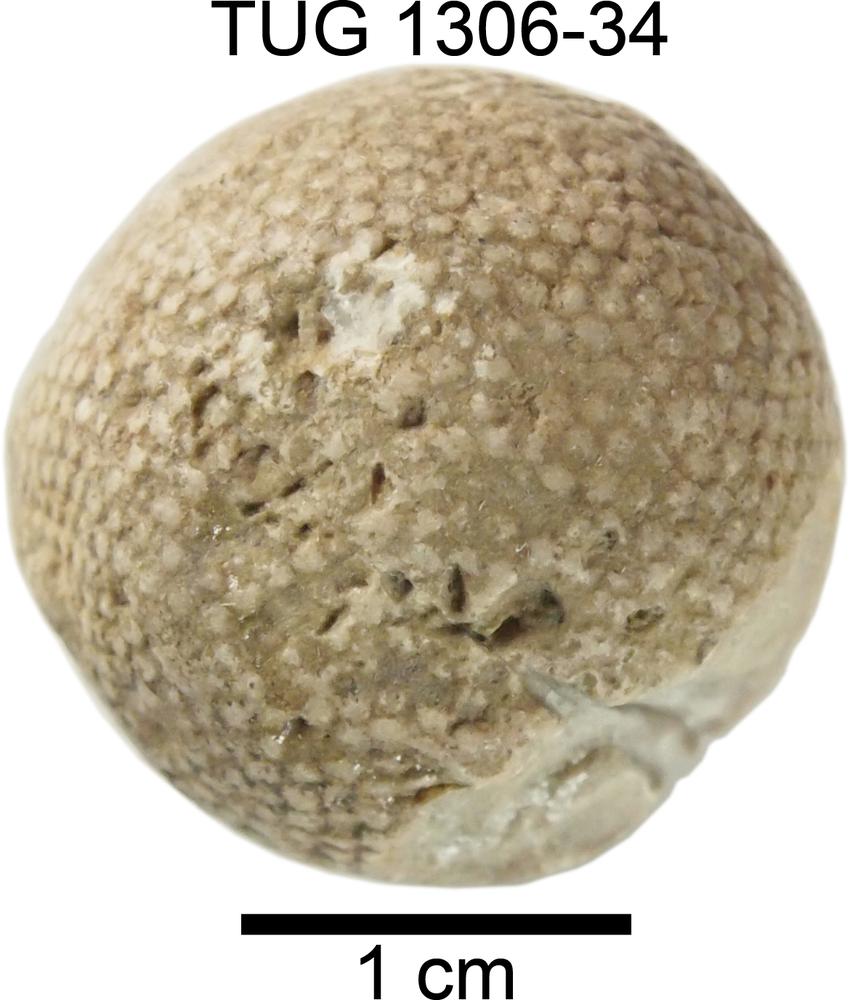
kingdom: Plantae
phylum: Chlorophyta
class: Ulvophyceae
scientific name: Ulvophyceae
